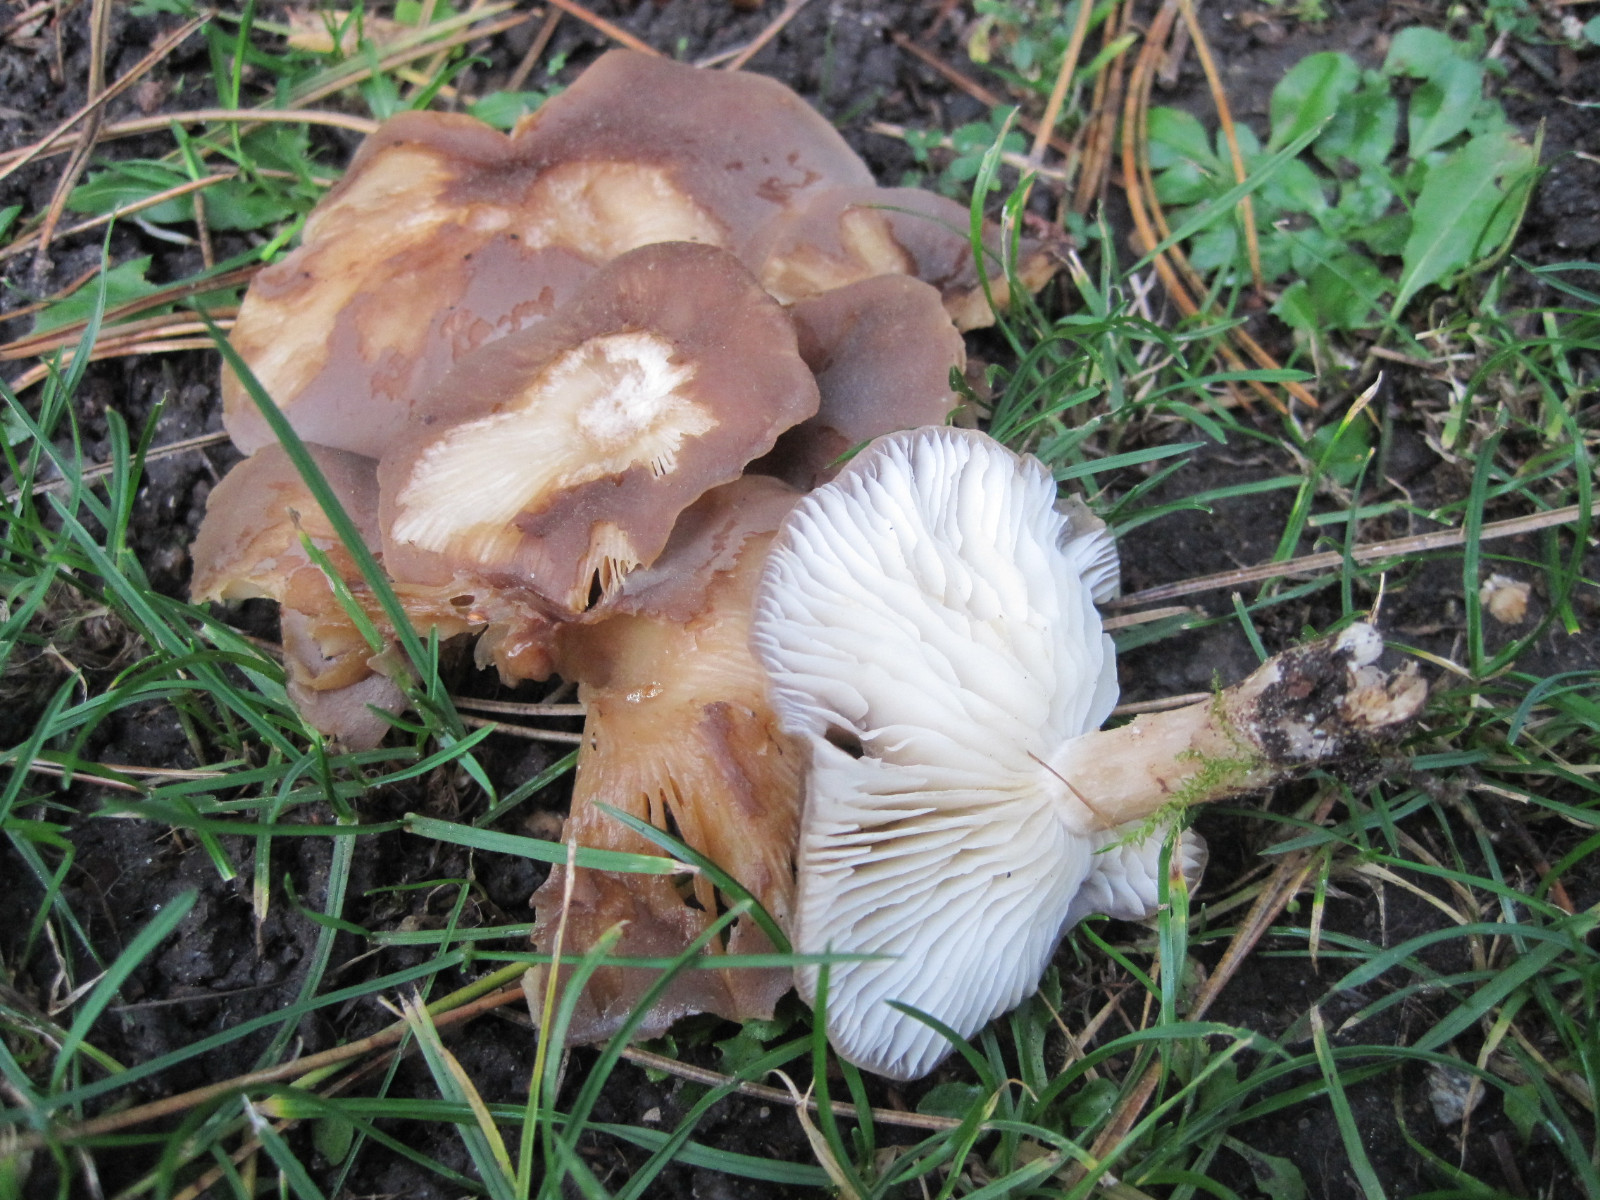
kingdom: Fungi
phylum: Basidiomycota
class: Agaricomycetes
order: Agaricales
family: Lyophyllaceae
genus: Lyophyllum
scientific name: Lyophyllum decastes
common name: Clustered domecap
